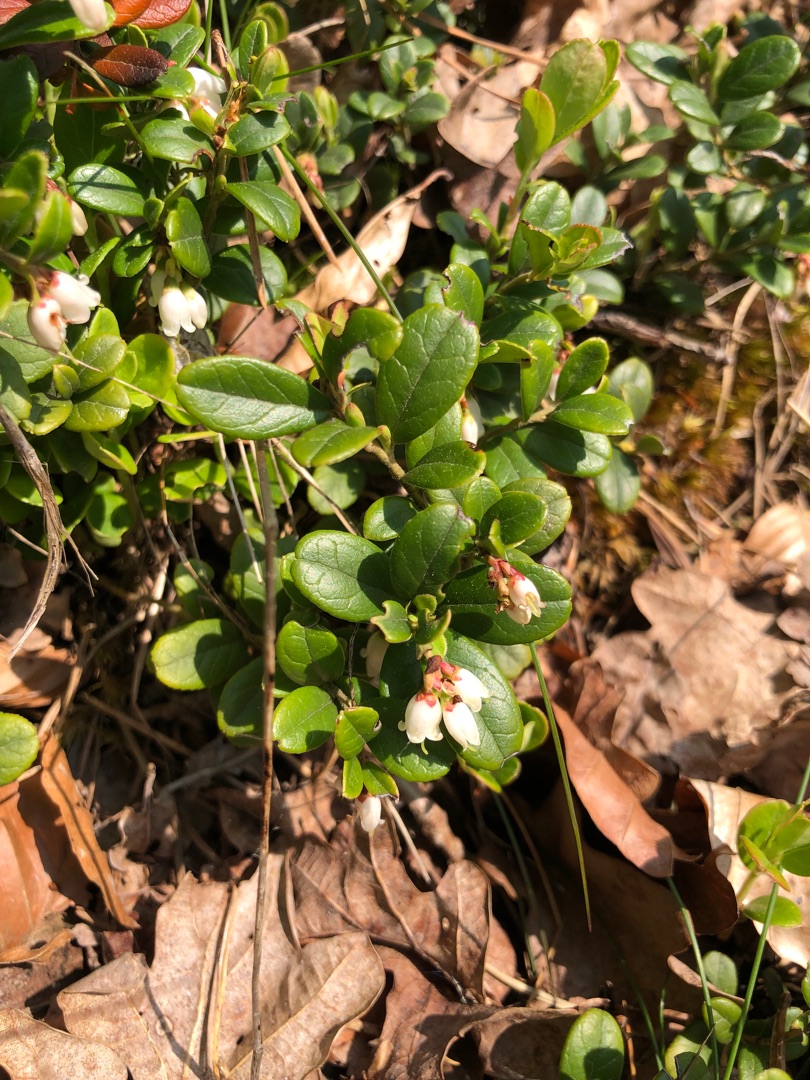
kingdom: Plantae
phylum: Tracheophyta
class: Magnoliopsida
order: Ericales
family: Ericaceae
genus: Vaccinium
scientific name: Vaccinium vitis-idaea
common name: Tyttebær
